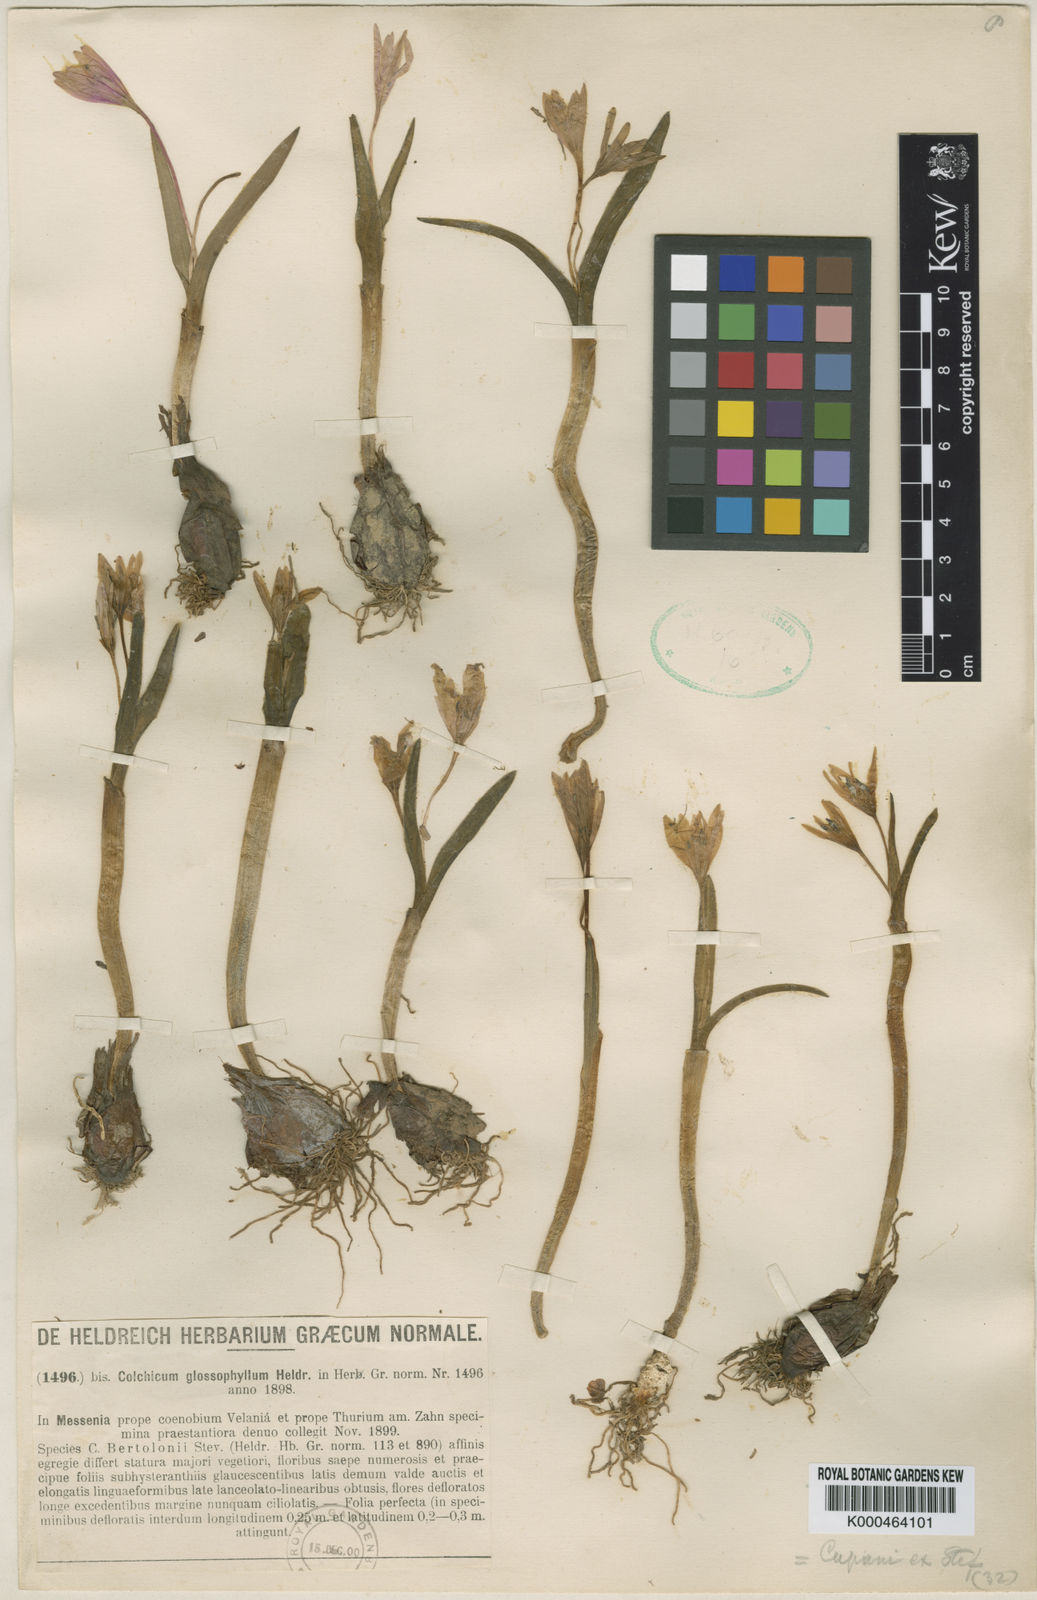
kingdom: Plantae
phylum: Tracheophyta
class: Liliopsida
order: Liliales
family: Colchicaceae
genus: Colchicum
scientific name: Colchicum cupanii
